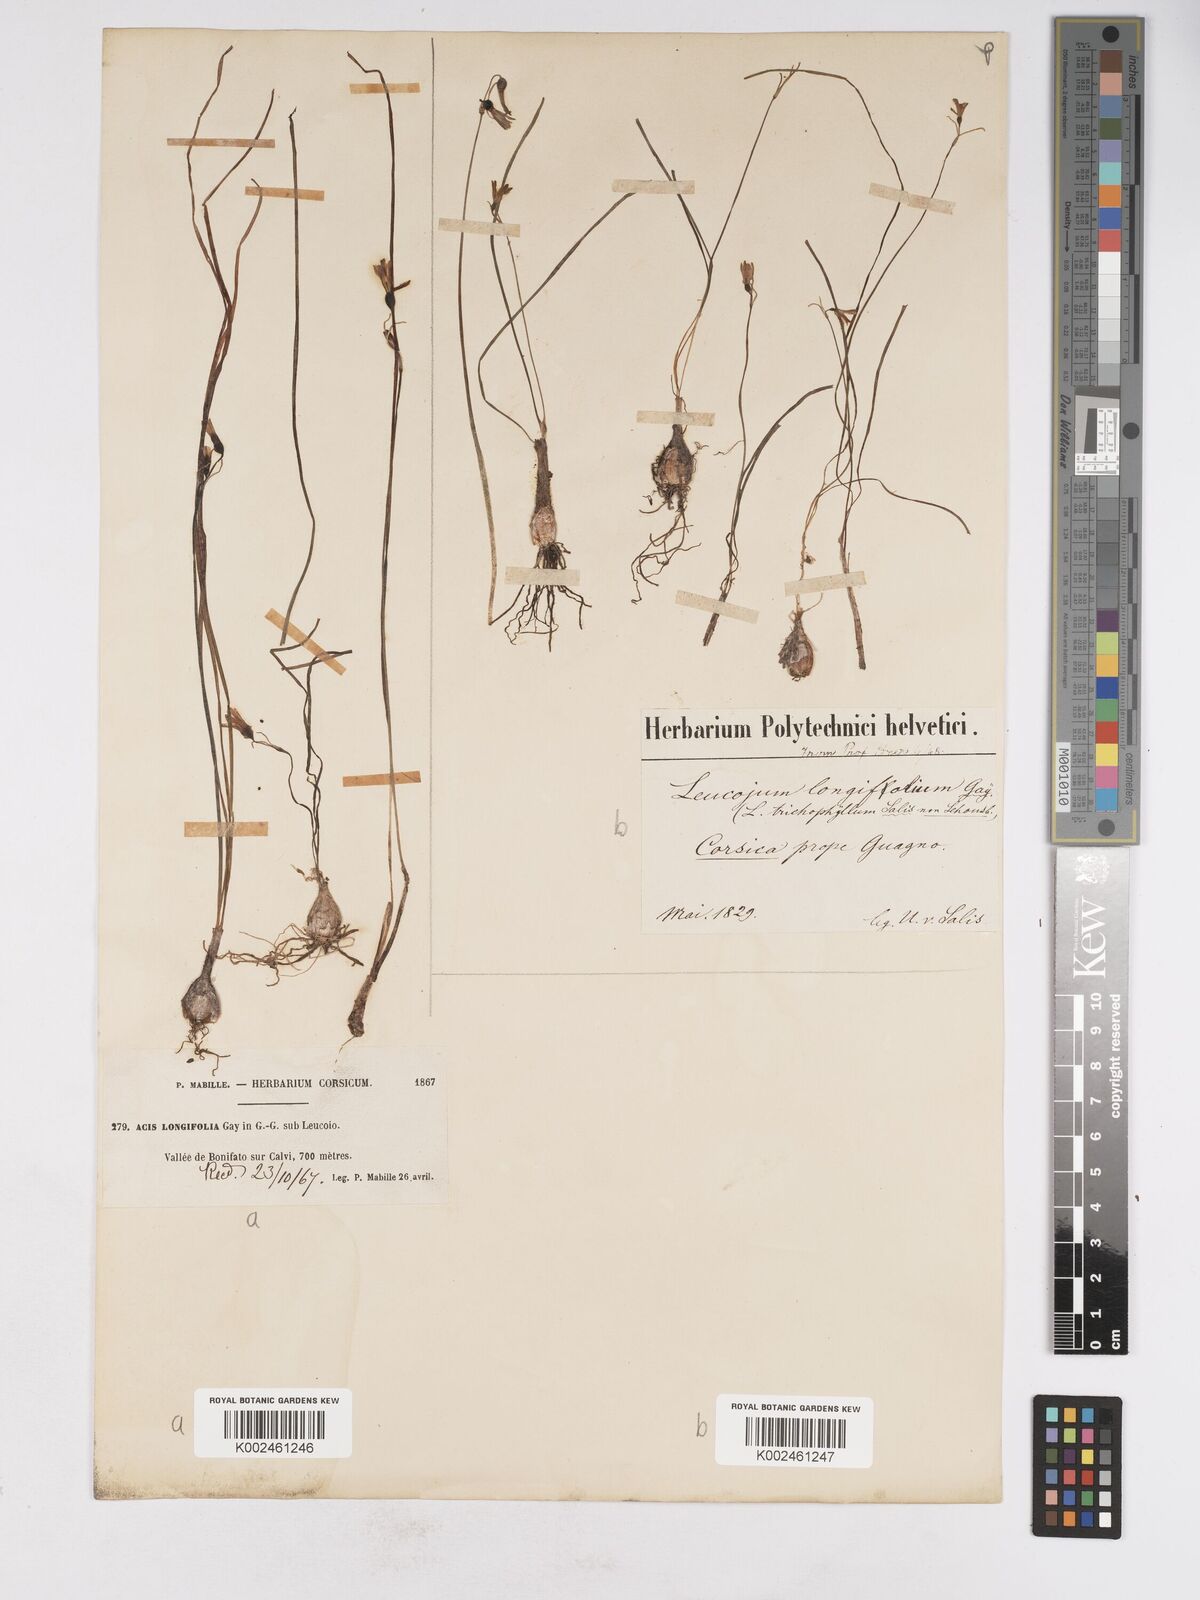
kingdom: Plantae
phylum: Tracheophyta
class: Liliopsida
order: Asparagales
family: Amaryllidaceae
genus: Acis
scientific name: Acis longifolia
